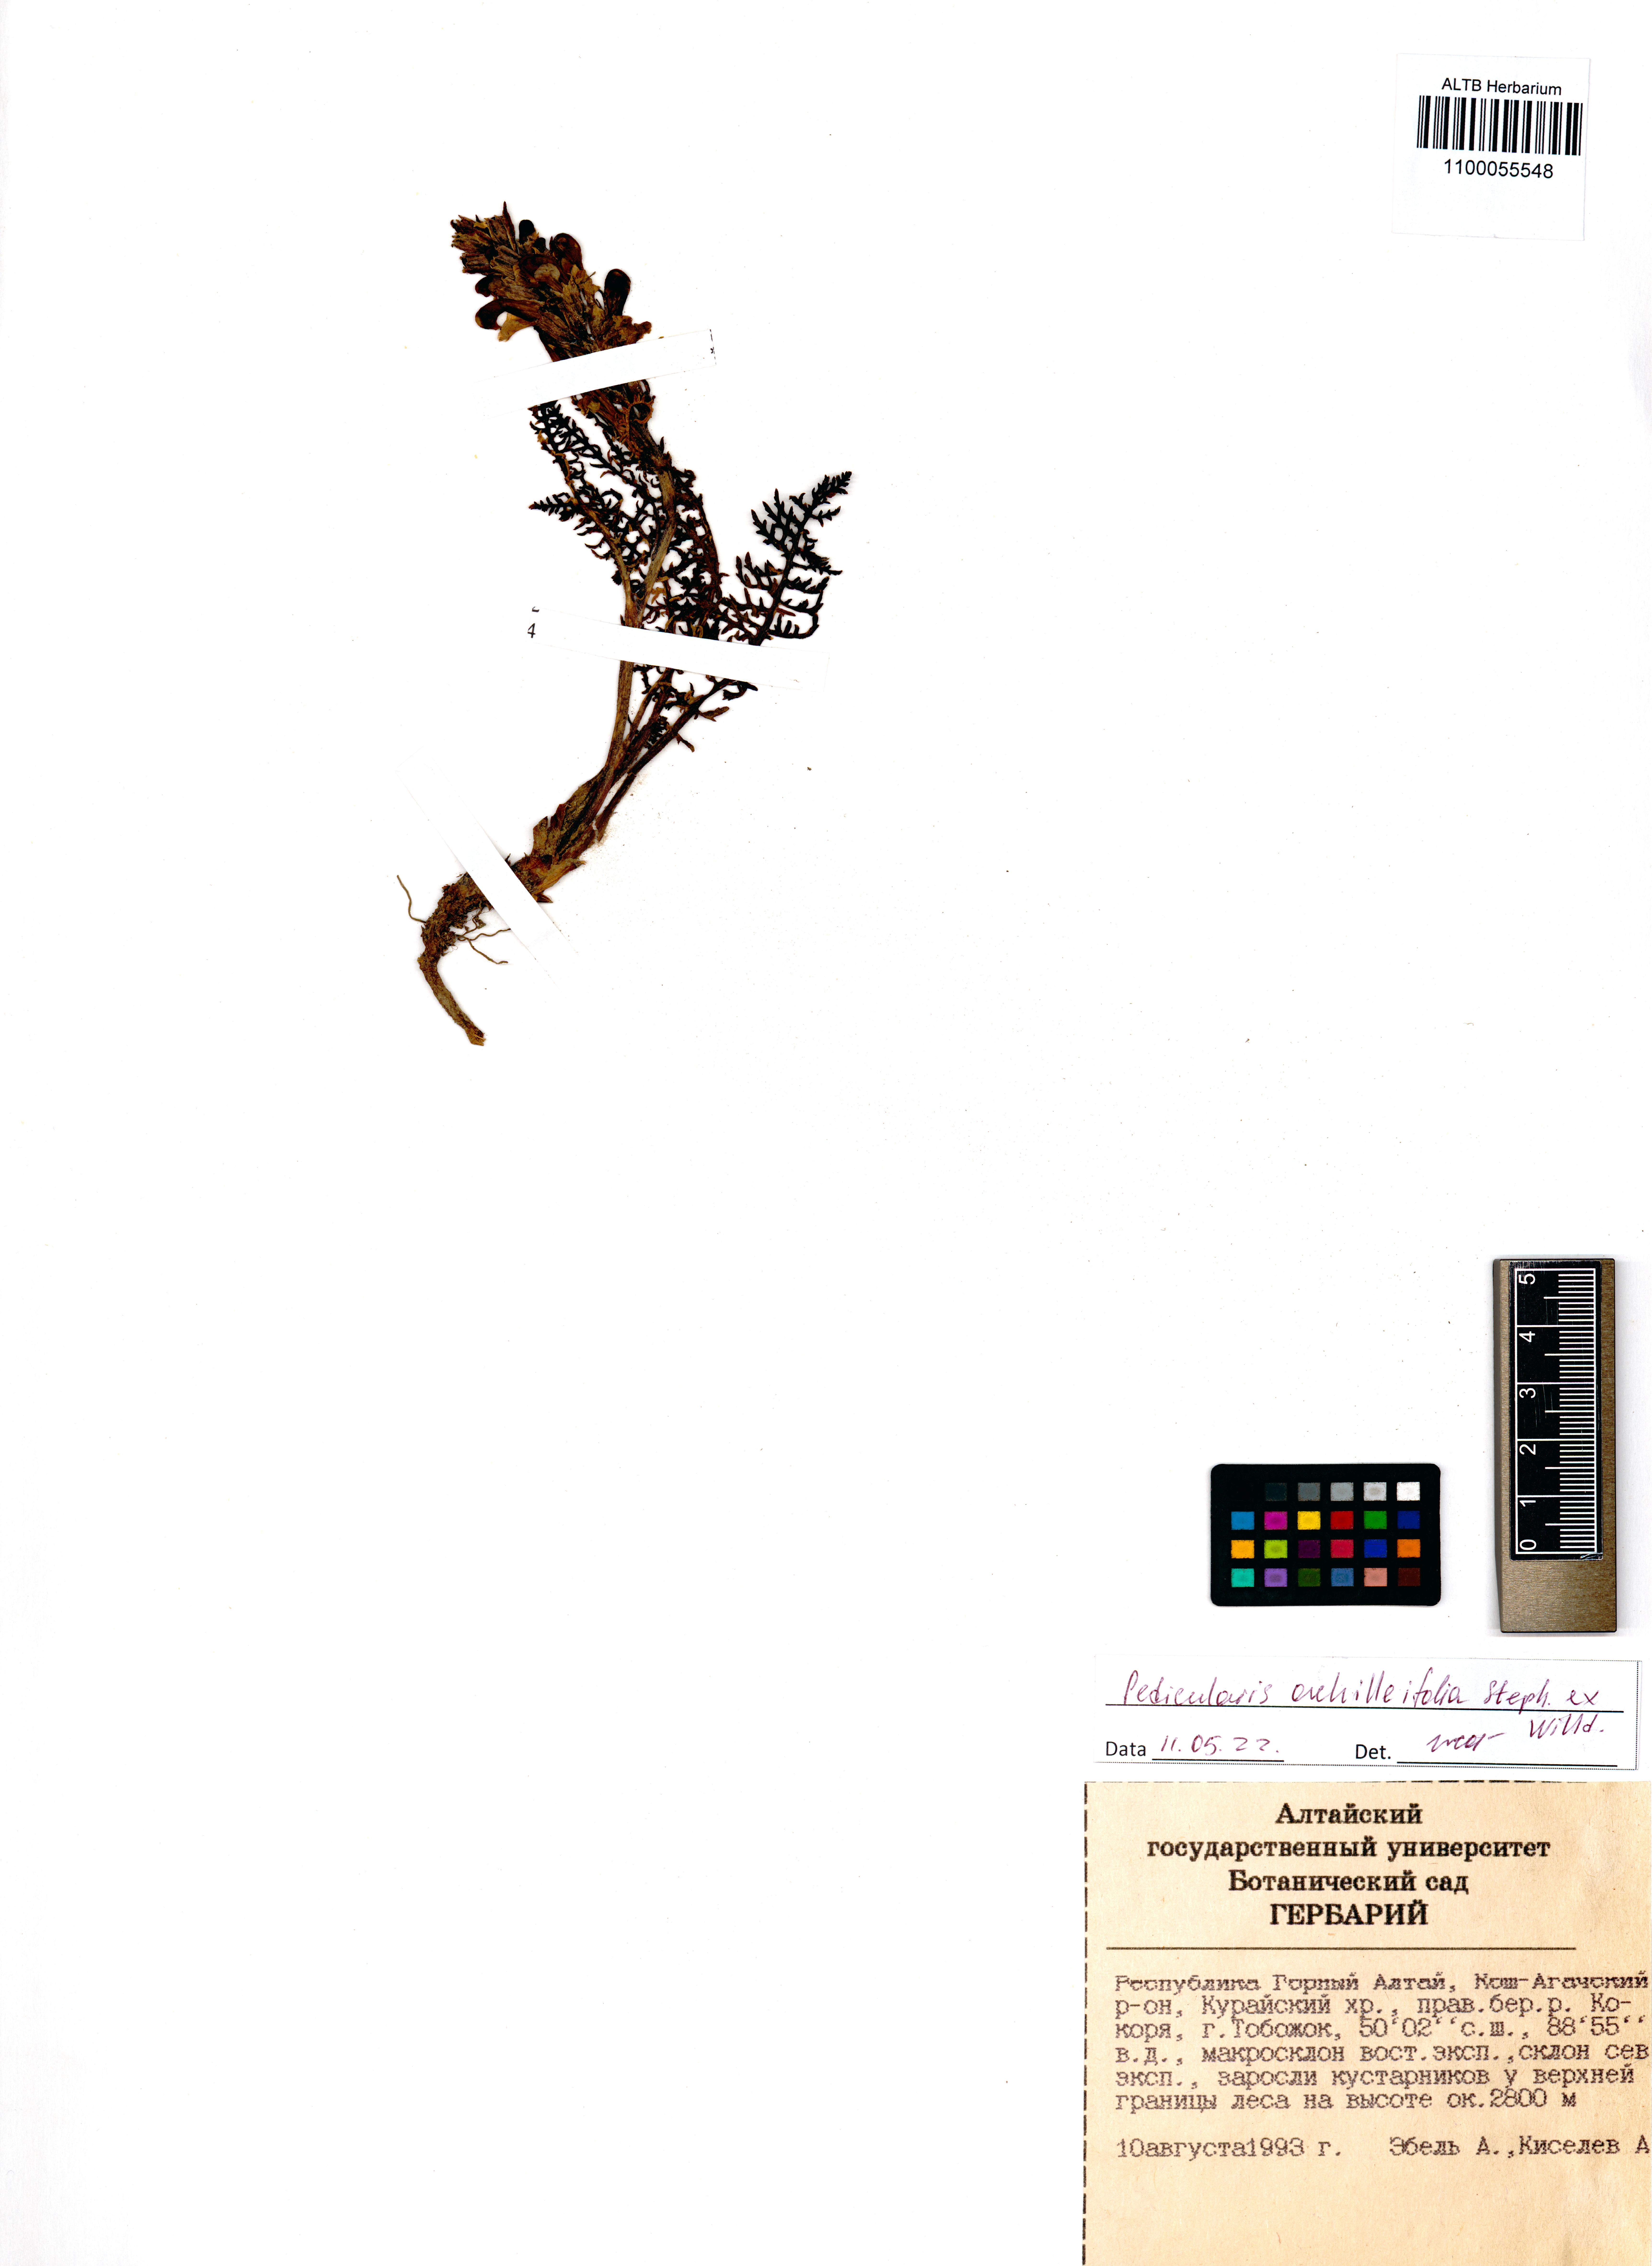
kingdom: Plantae
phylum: Tracheophyta
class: Magnoliopsida
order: Lamiales
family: Orobanchaceae
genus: Pedicularis
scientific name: Pedicularis achilleifolia
